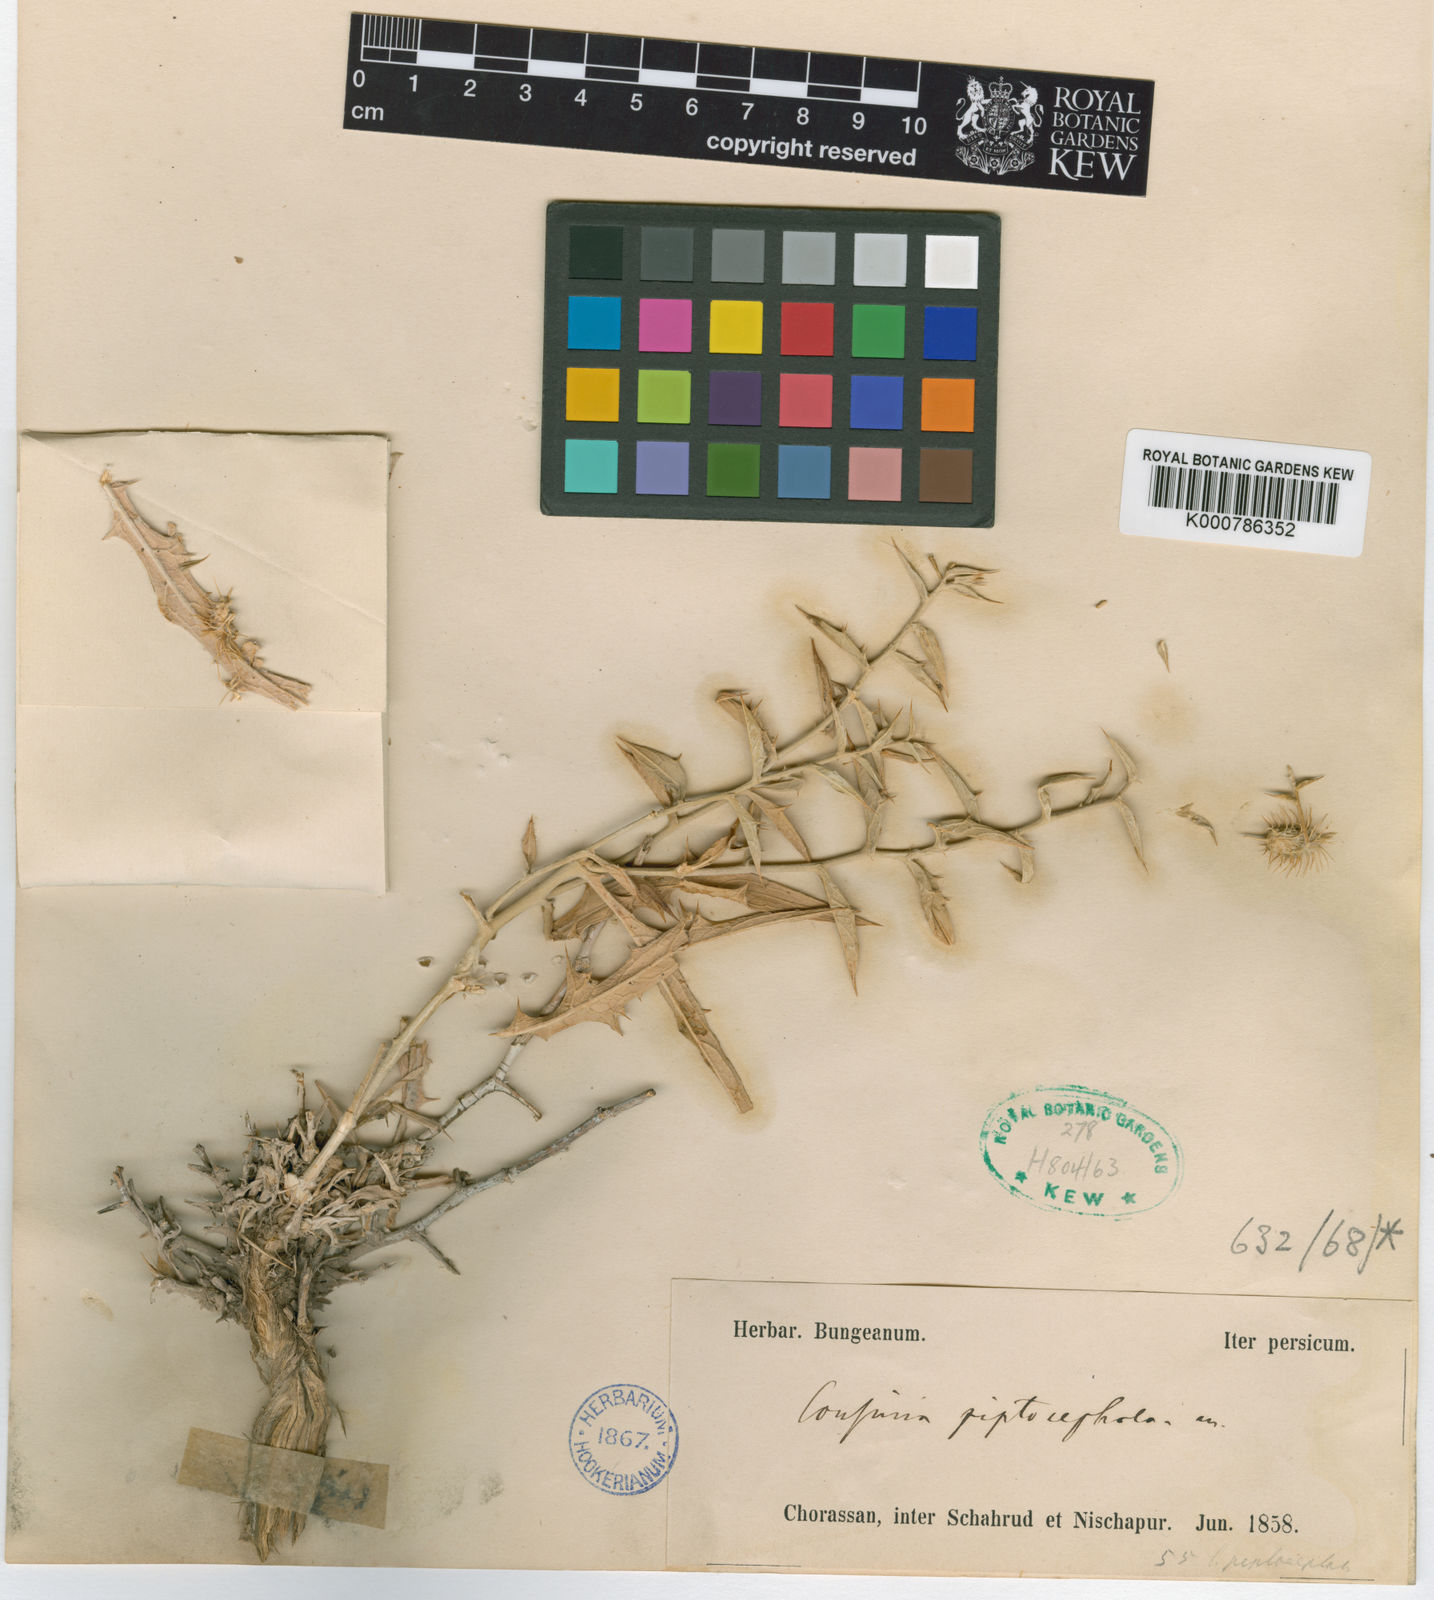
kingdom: Plantae
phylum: Tracheophyta
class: Magnoliopsida
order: Asterales
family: Asteraceae
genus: Cousinia
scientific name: Cousinia piptocephala
